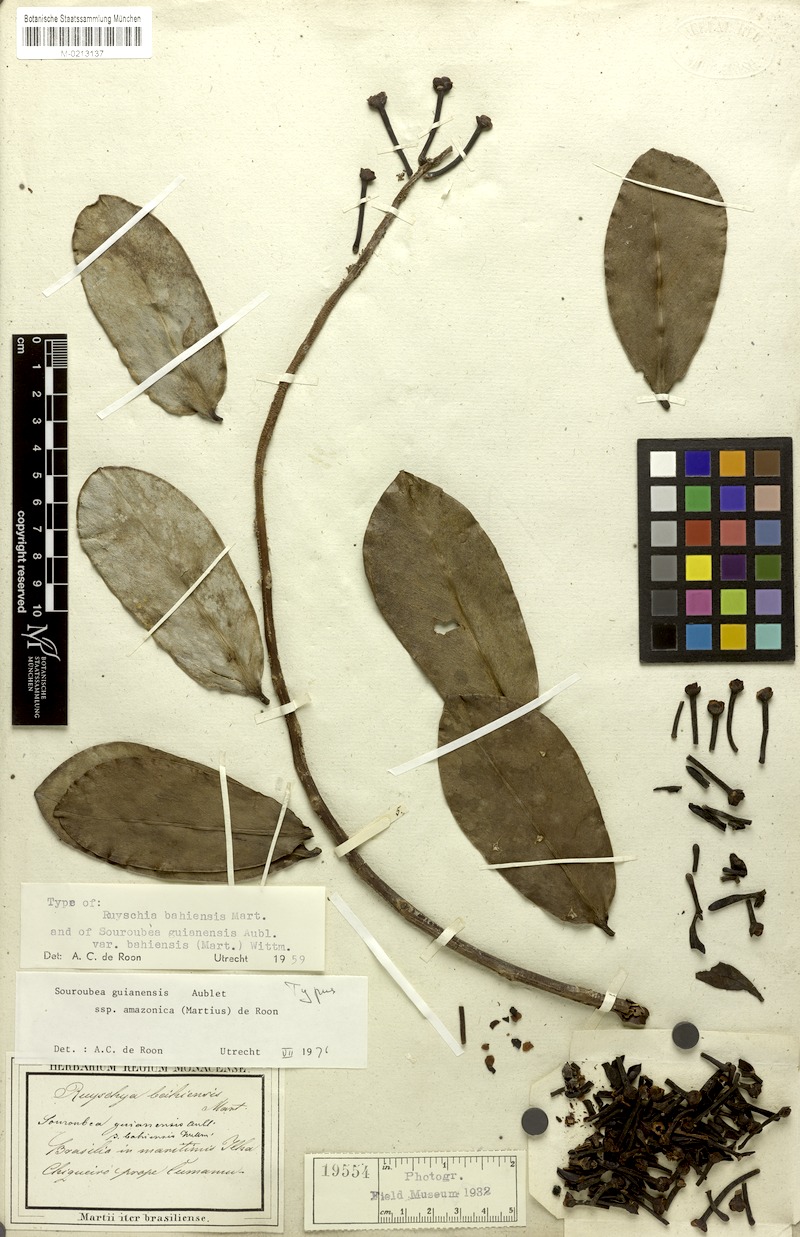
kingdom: Plantae
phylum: Tracheophyta
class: Magnoliopsida
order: Ericales
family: Marcgraviaceae
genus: Souroubea
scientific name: Souroubea guianensis
